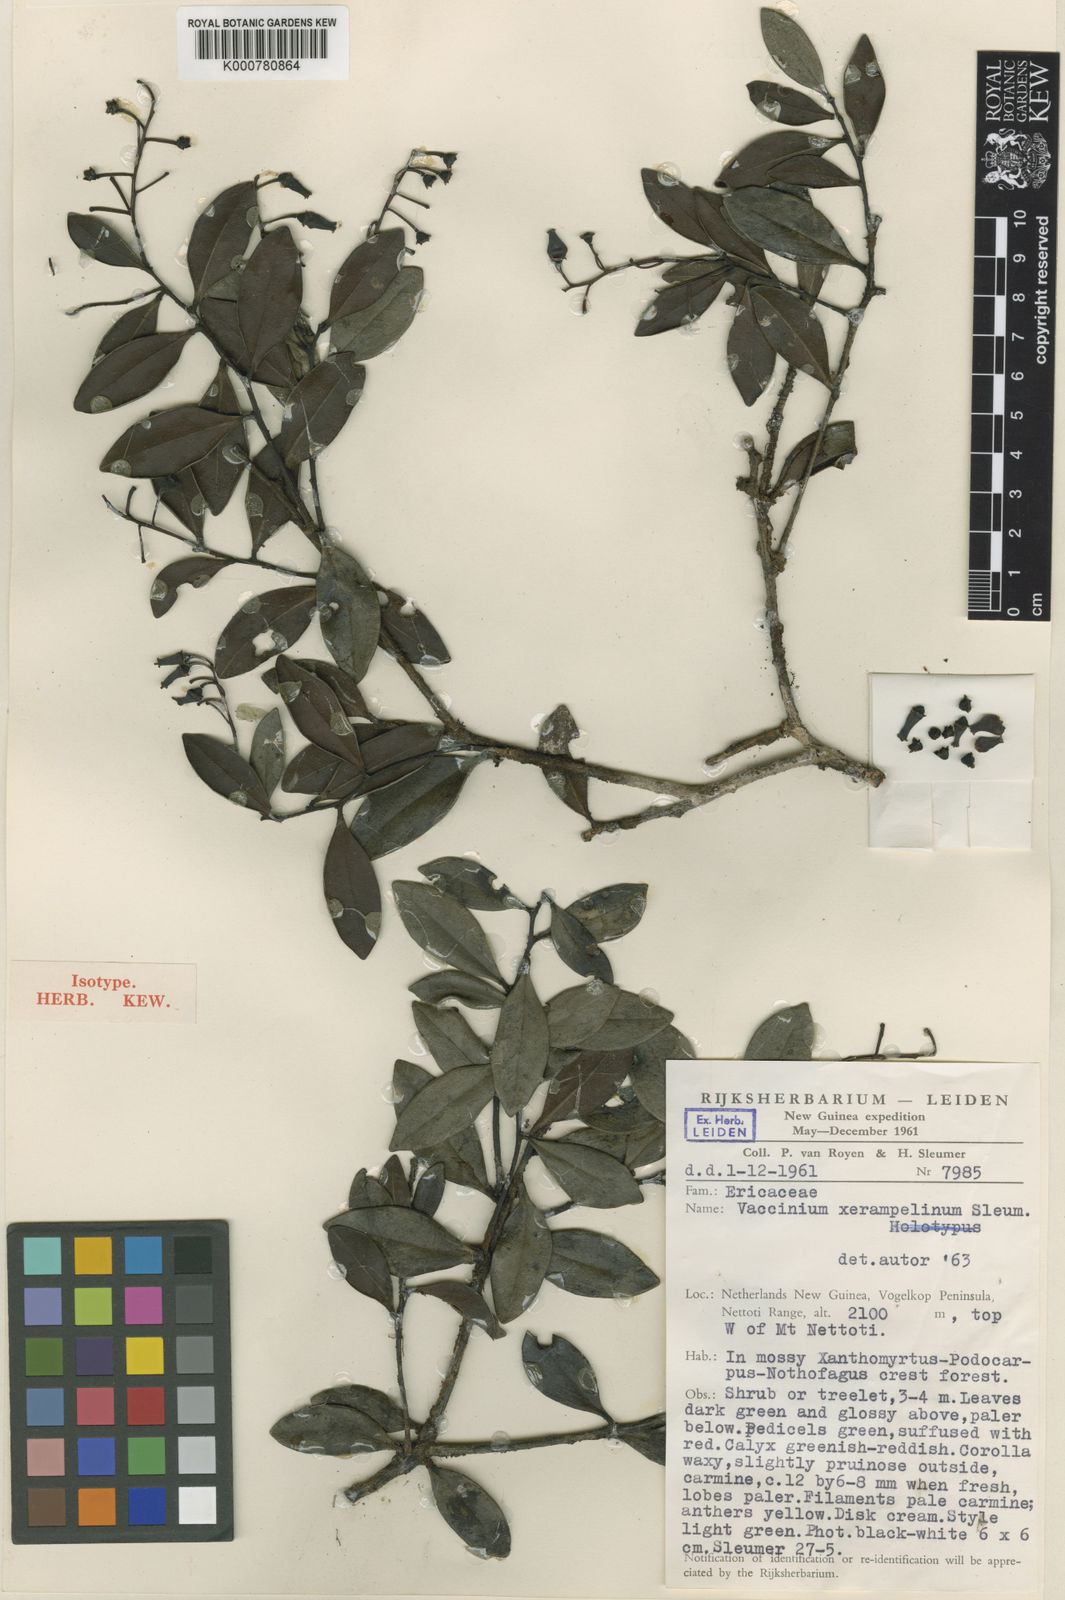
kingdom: Plantae
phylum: Tracheophyta
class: Magnoliopsida
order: Ericales
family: Ericaceae
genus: Vaccinium
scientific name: Vaccinium xerampelinum
